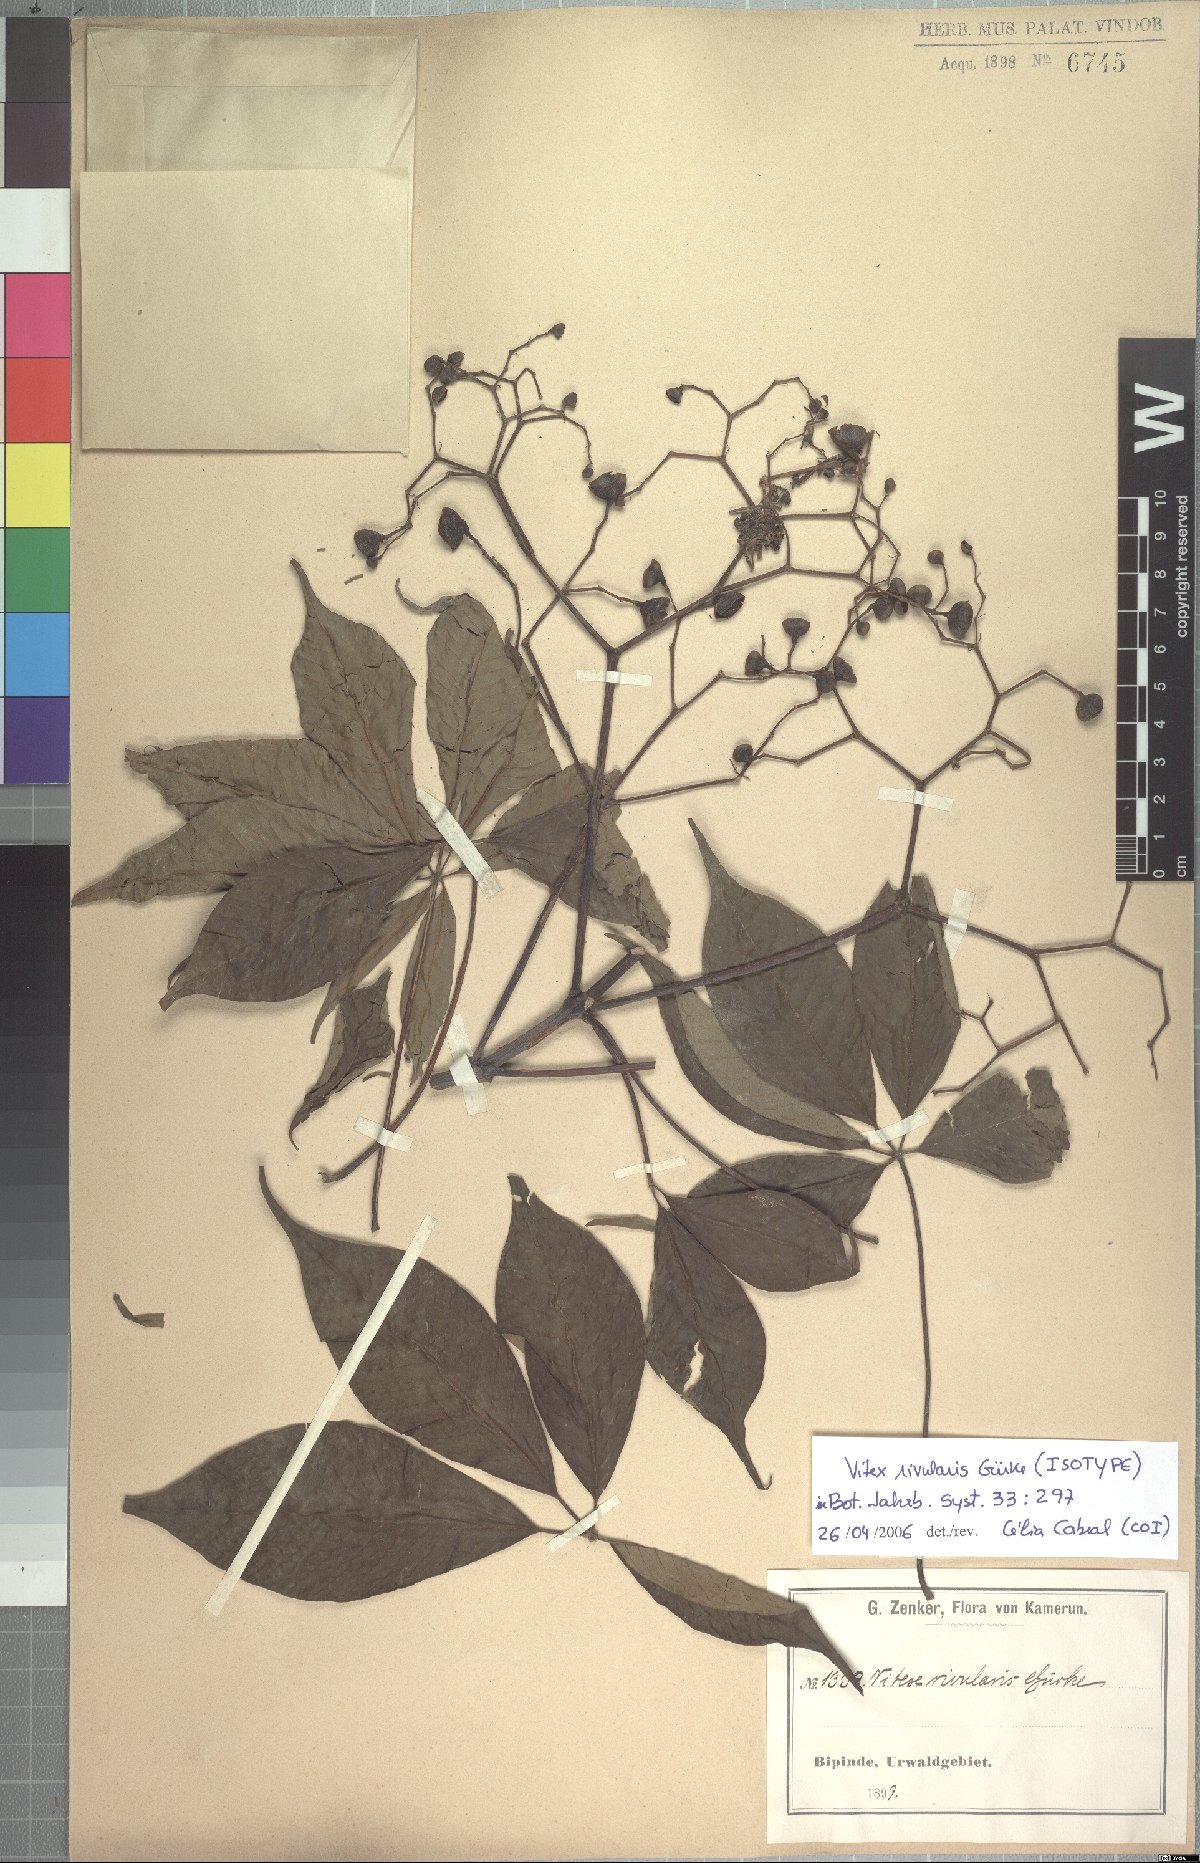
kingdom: Plantae
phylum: Tracheophyta
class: Magnoliopsida
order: Lamiales
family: Lamiaceae
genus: Vitex
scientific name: Vitex rivularis
